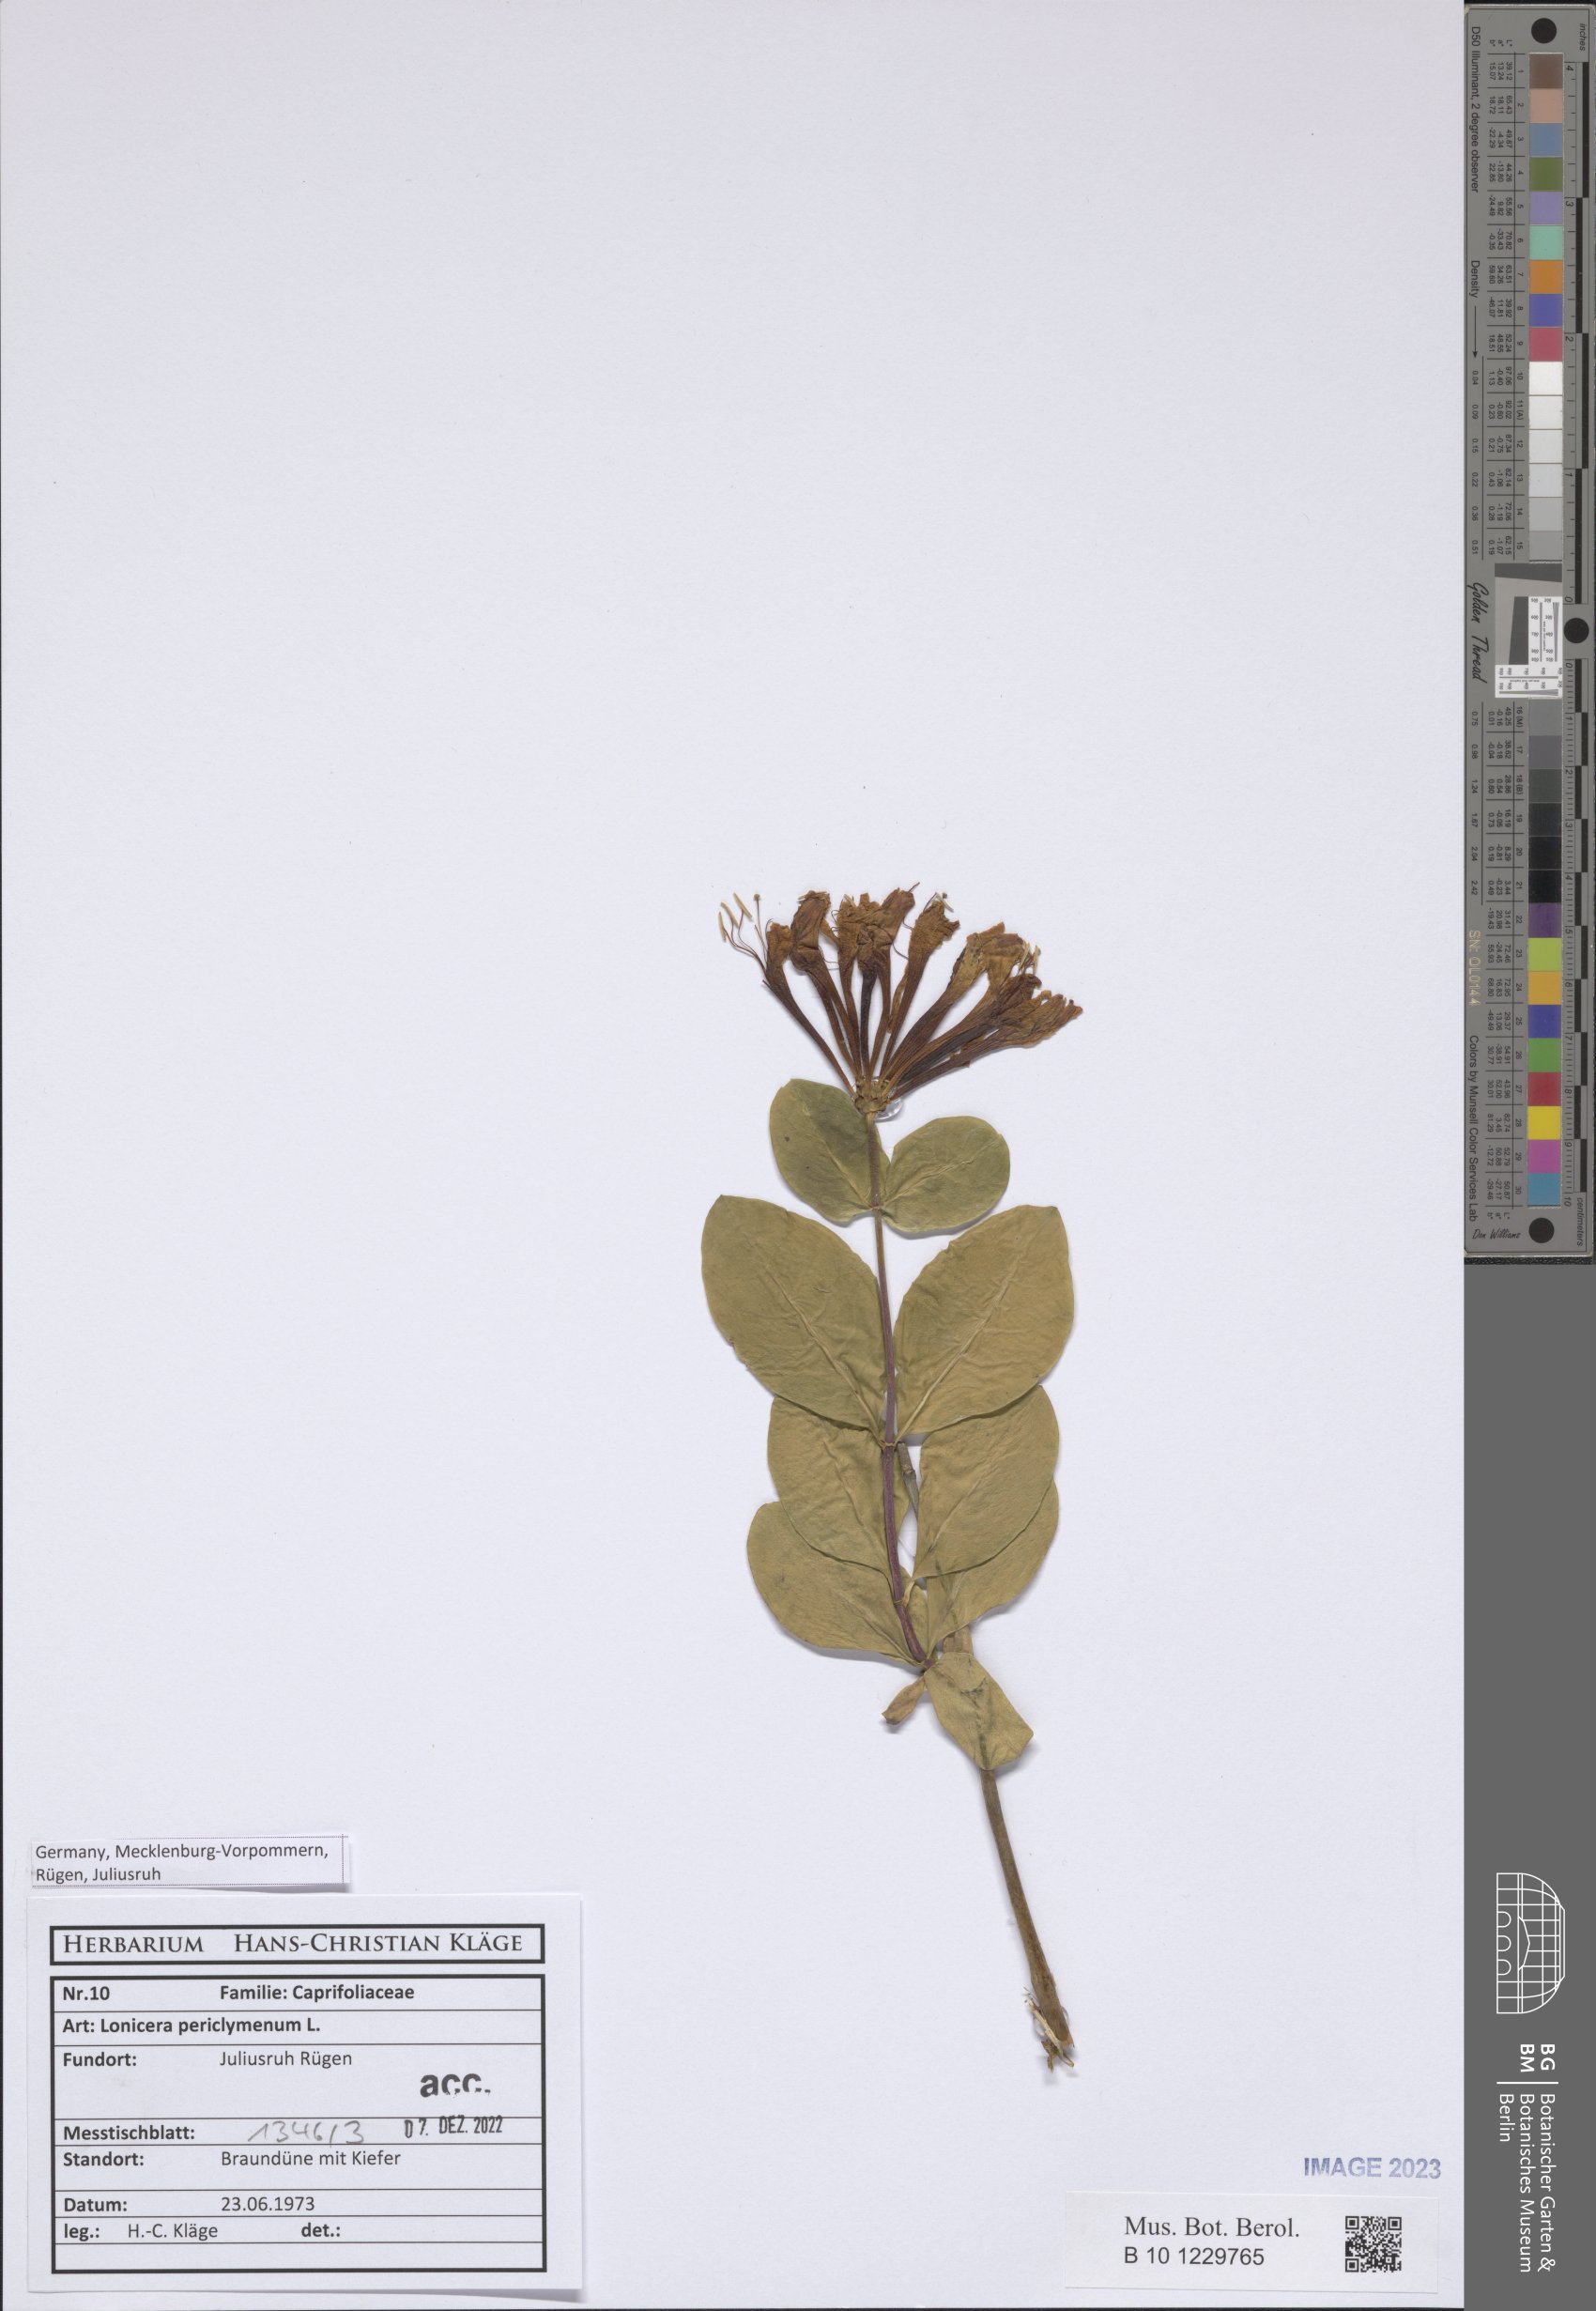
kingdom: Plantae
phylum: Tracheophyta
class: Magnoliopsida
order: Dipsacales
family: Caprifoliaceae
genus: Lonicera
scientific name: Lonicera periclymenum
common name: European honeysuckle
